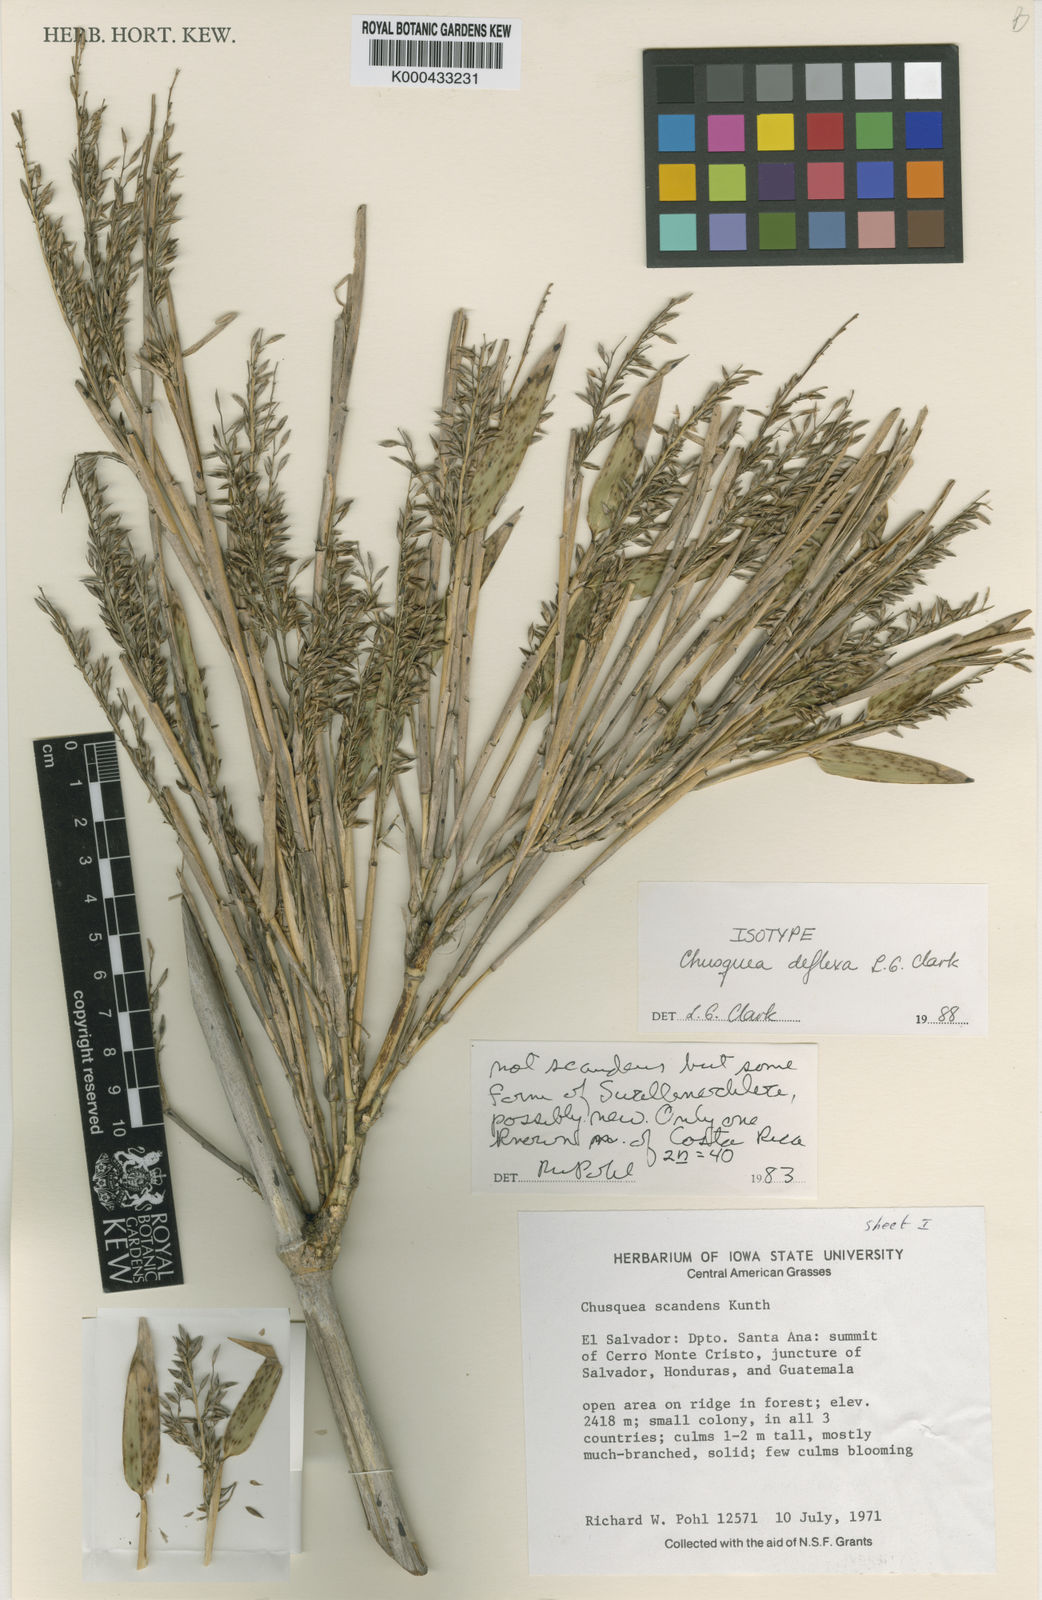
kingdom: Plantae
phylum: Tracheophyta
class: Liliopsida
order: Poales
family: Poaceae
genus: Chusquea
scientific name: Chusquea deflexa
